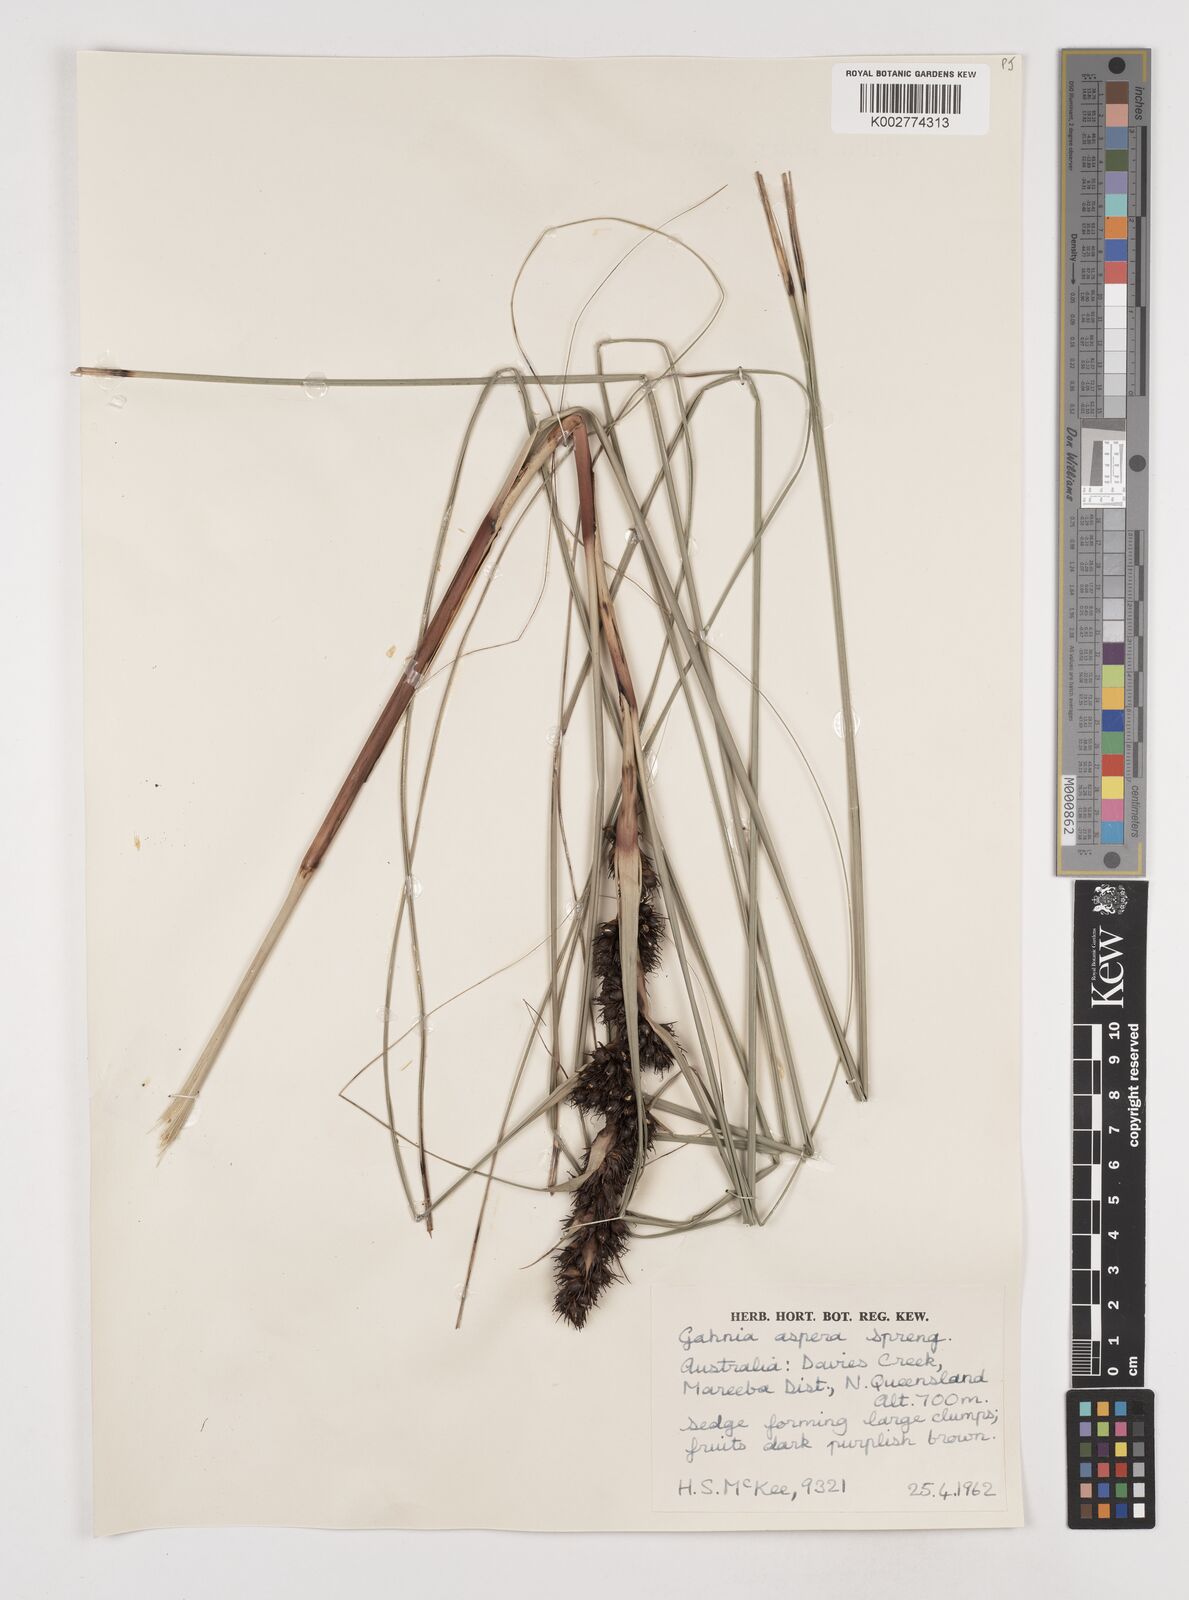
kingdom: Plantae
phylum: Tracheophyta
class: Liliopsida
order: Poales
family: Cyperaceae
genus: Gahnia
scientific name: Gahnia aspera
